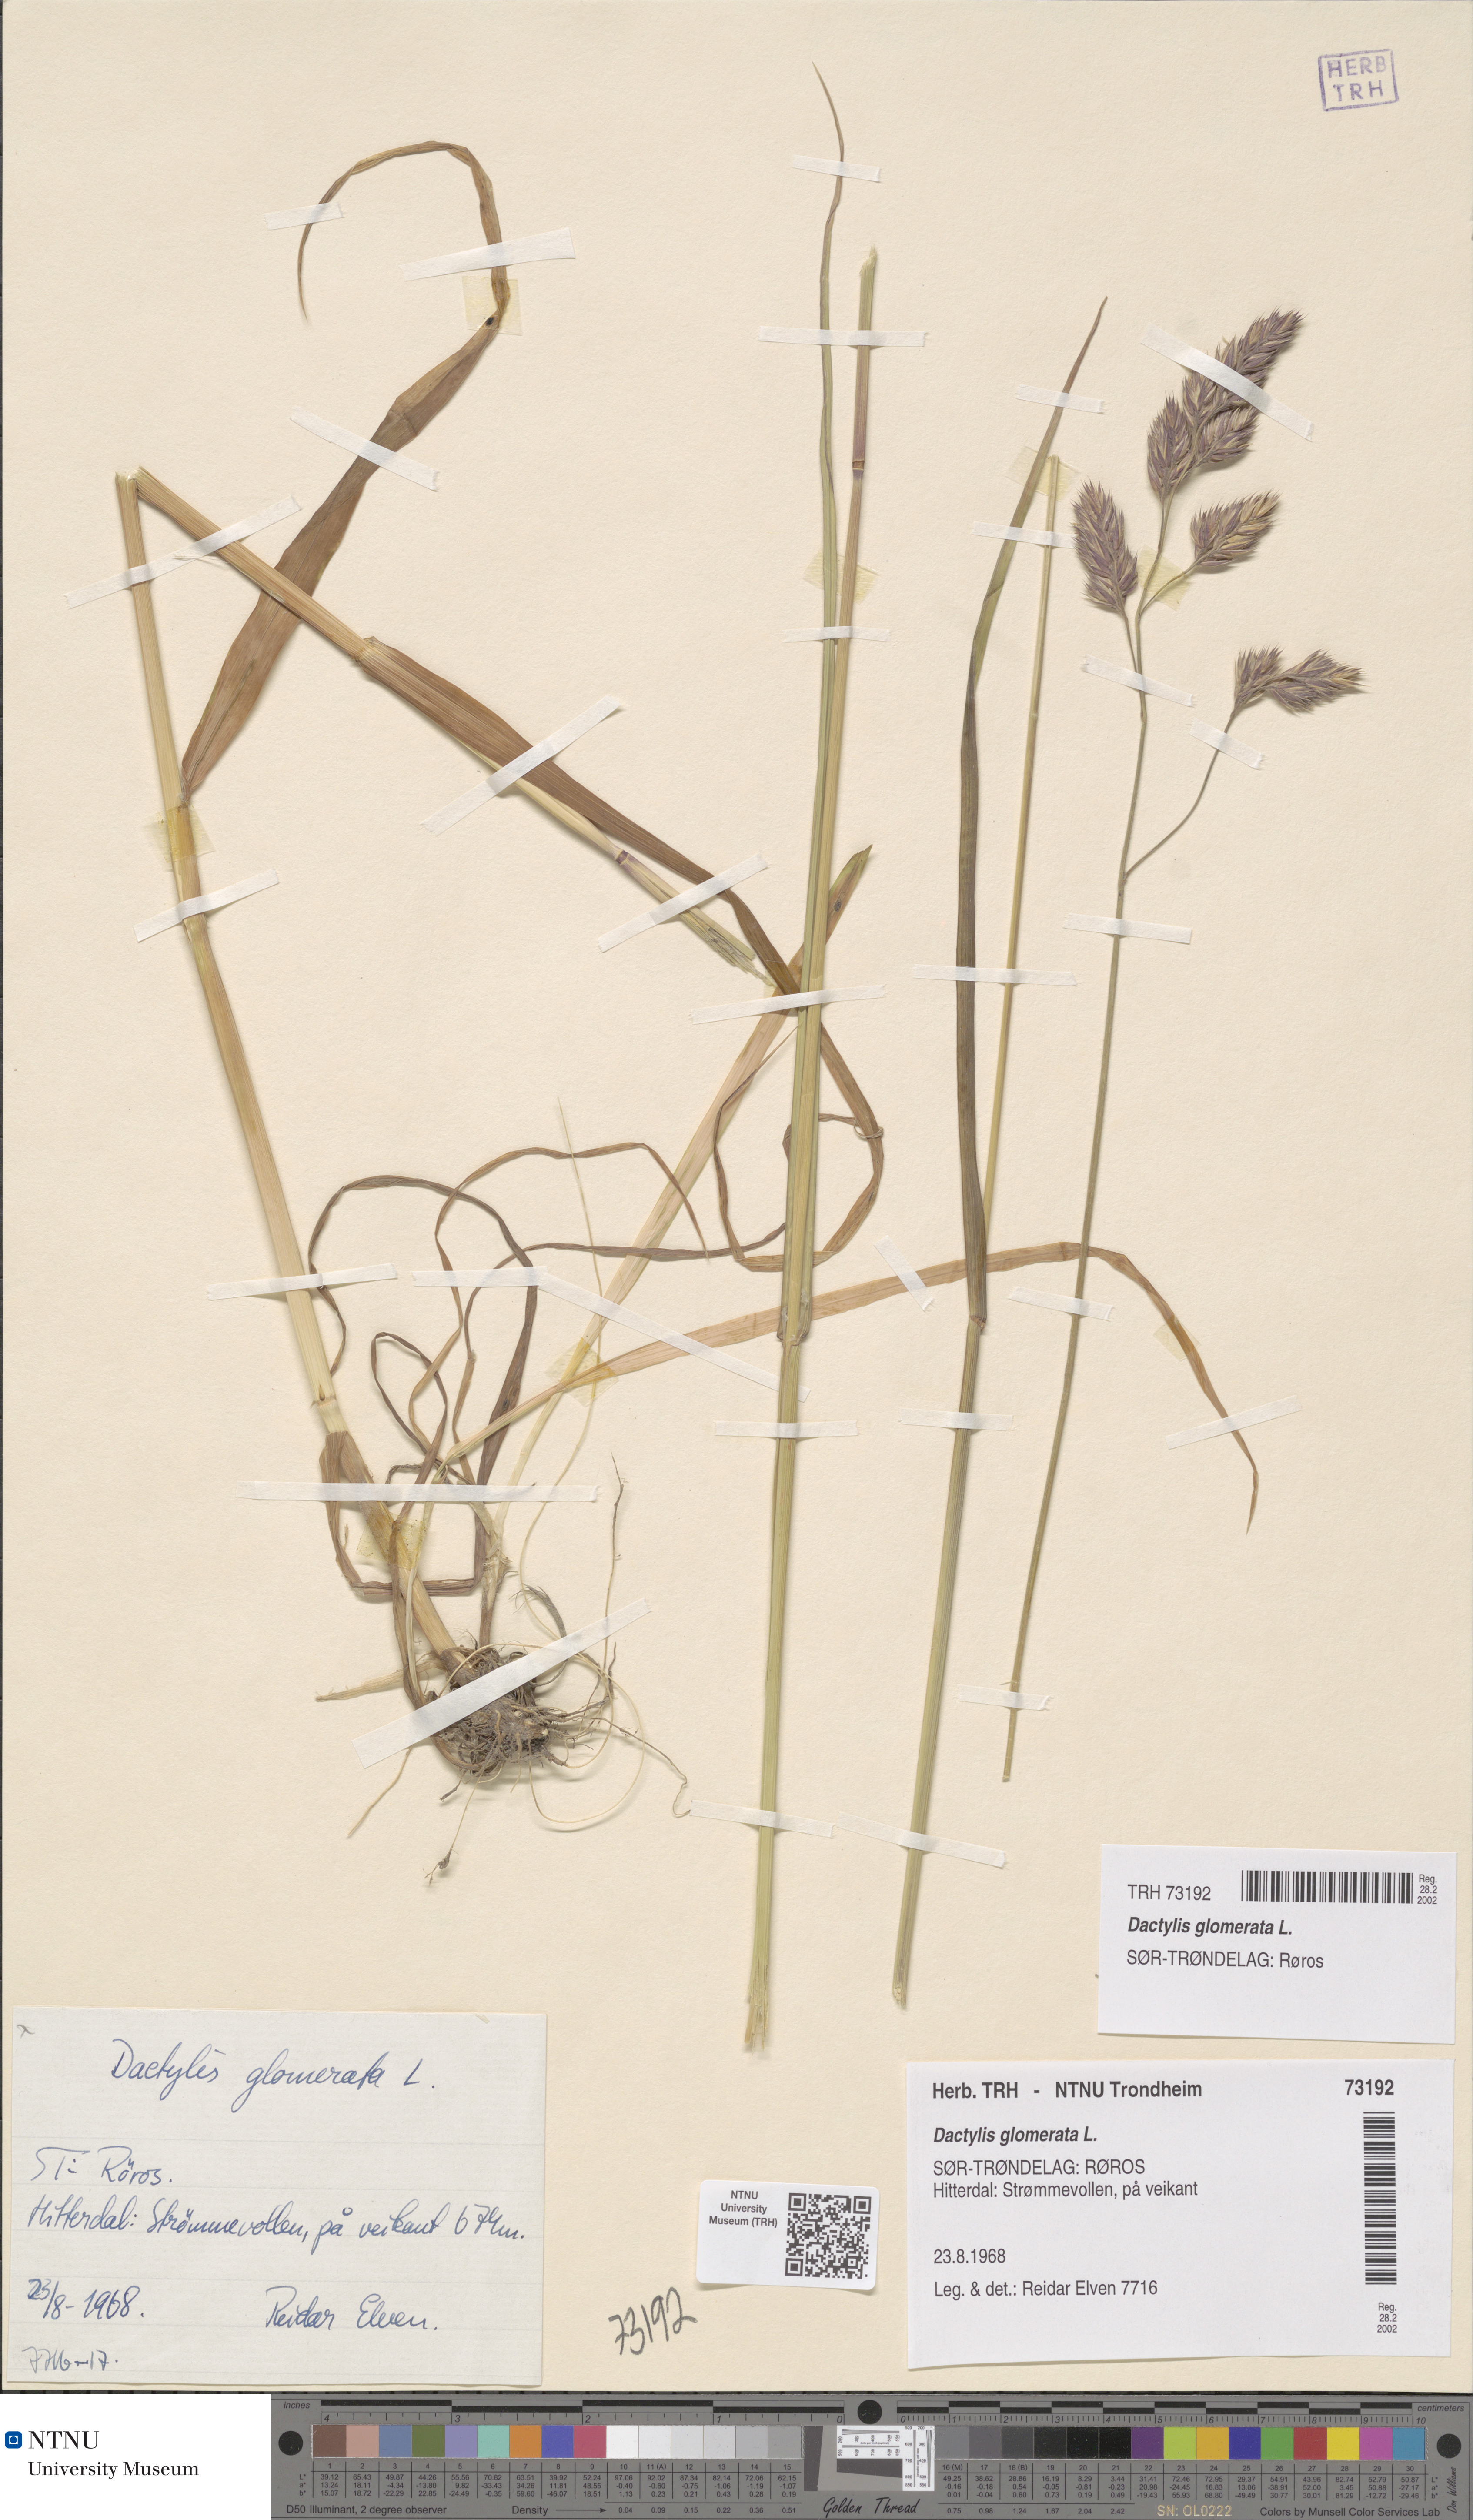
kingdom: Plantae
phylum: Tracheophyta
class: Liliopsida
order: Poales
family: Poaceae
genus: Dactylis
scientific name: Dactylis glomerata
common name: Orchardgrass
